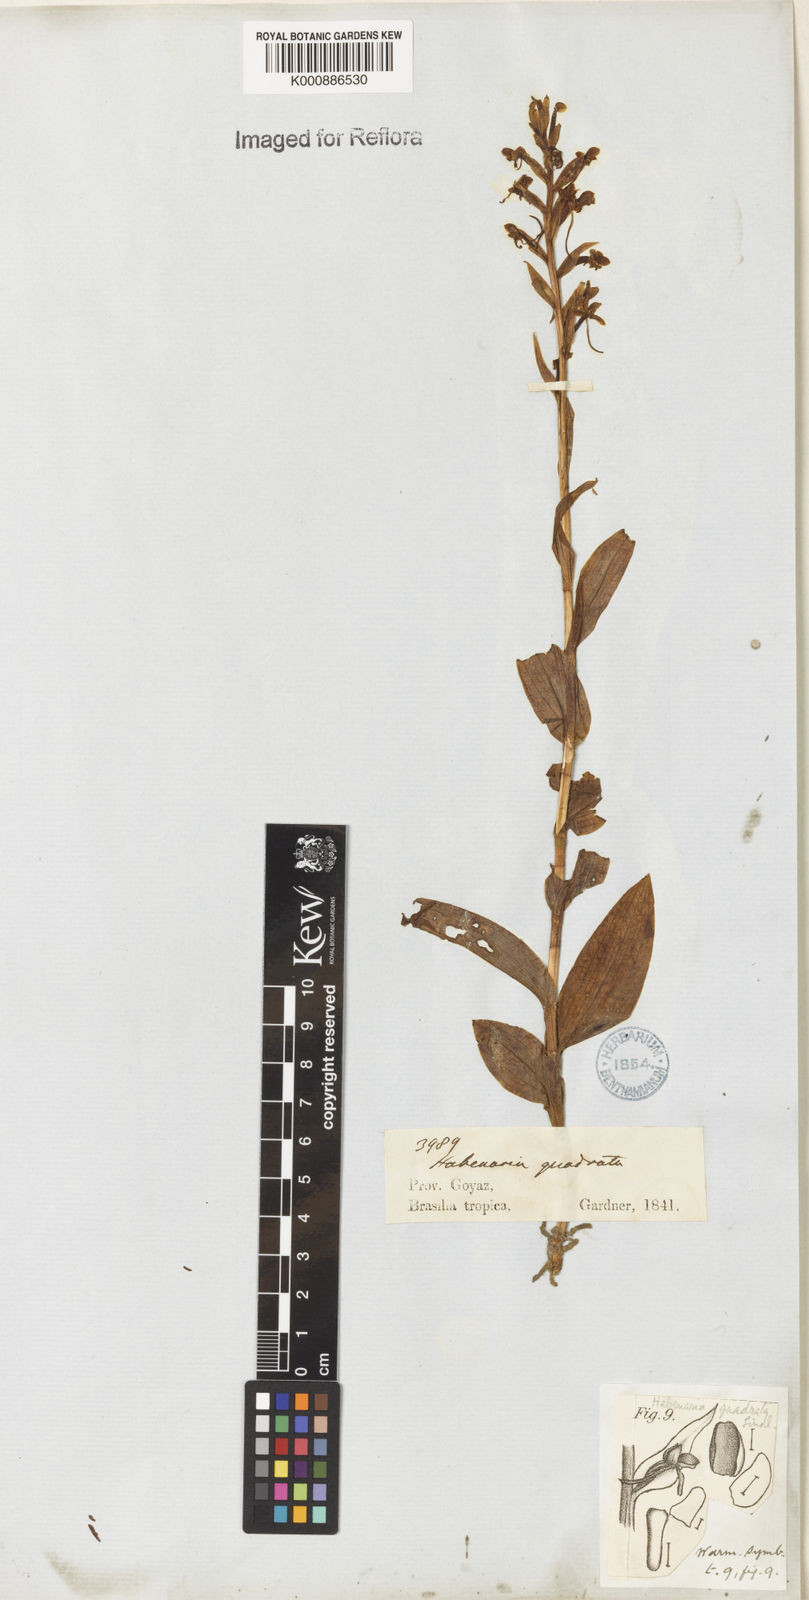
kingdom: Plantae
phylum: Tracheophyta
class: Liliopsida
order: Asparagales
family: Orchidaceae
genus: Habenaria
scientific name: Habenaria quadrata
